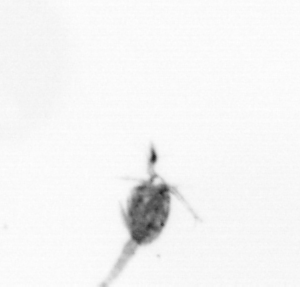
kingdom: Animalia
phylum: Arthropoda
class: Copepoda
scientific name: Copepoda
